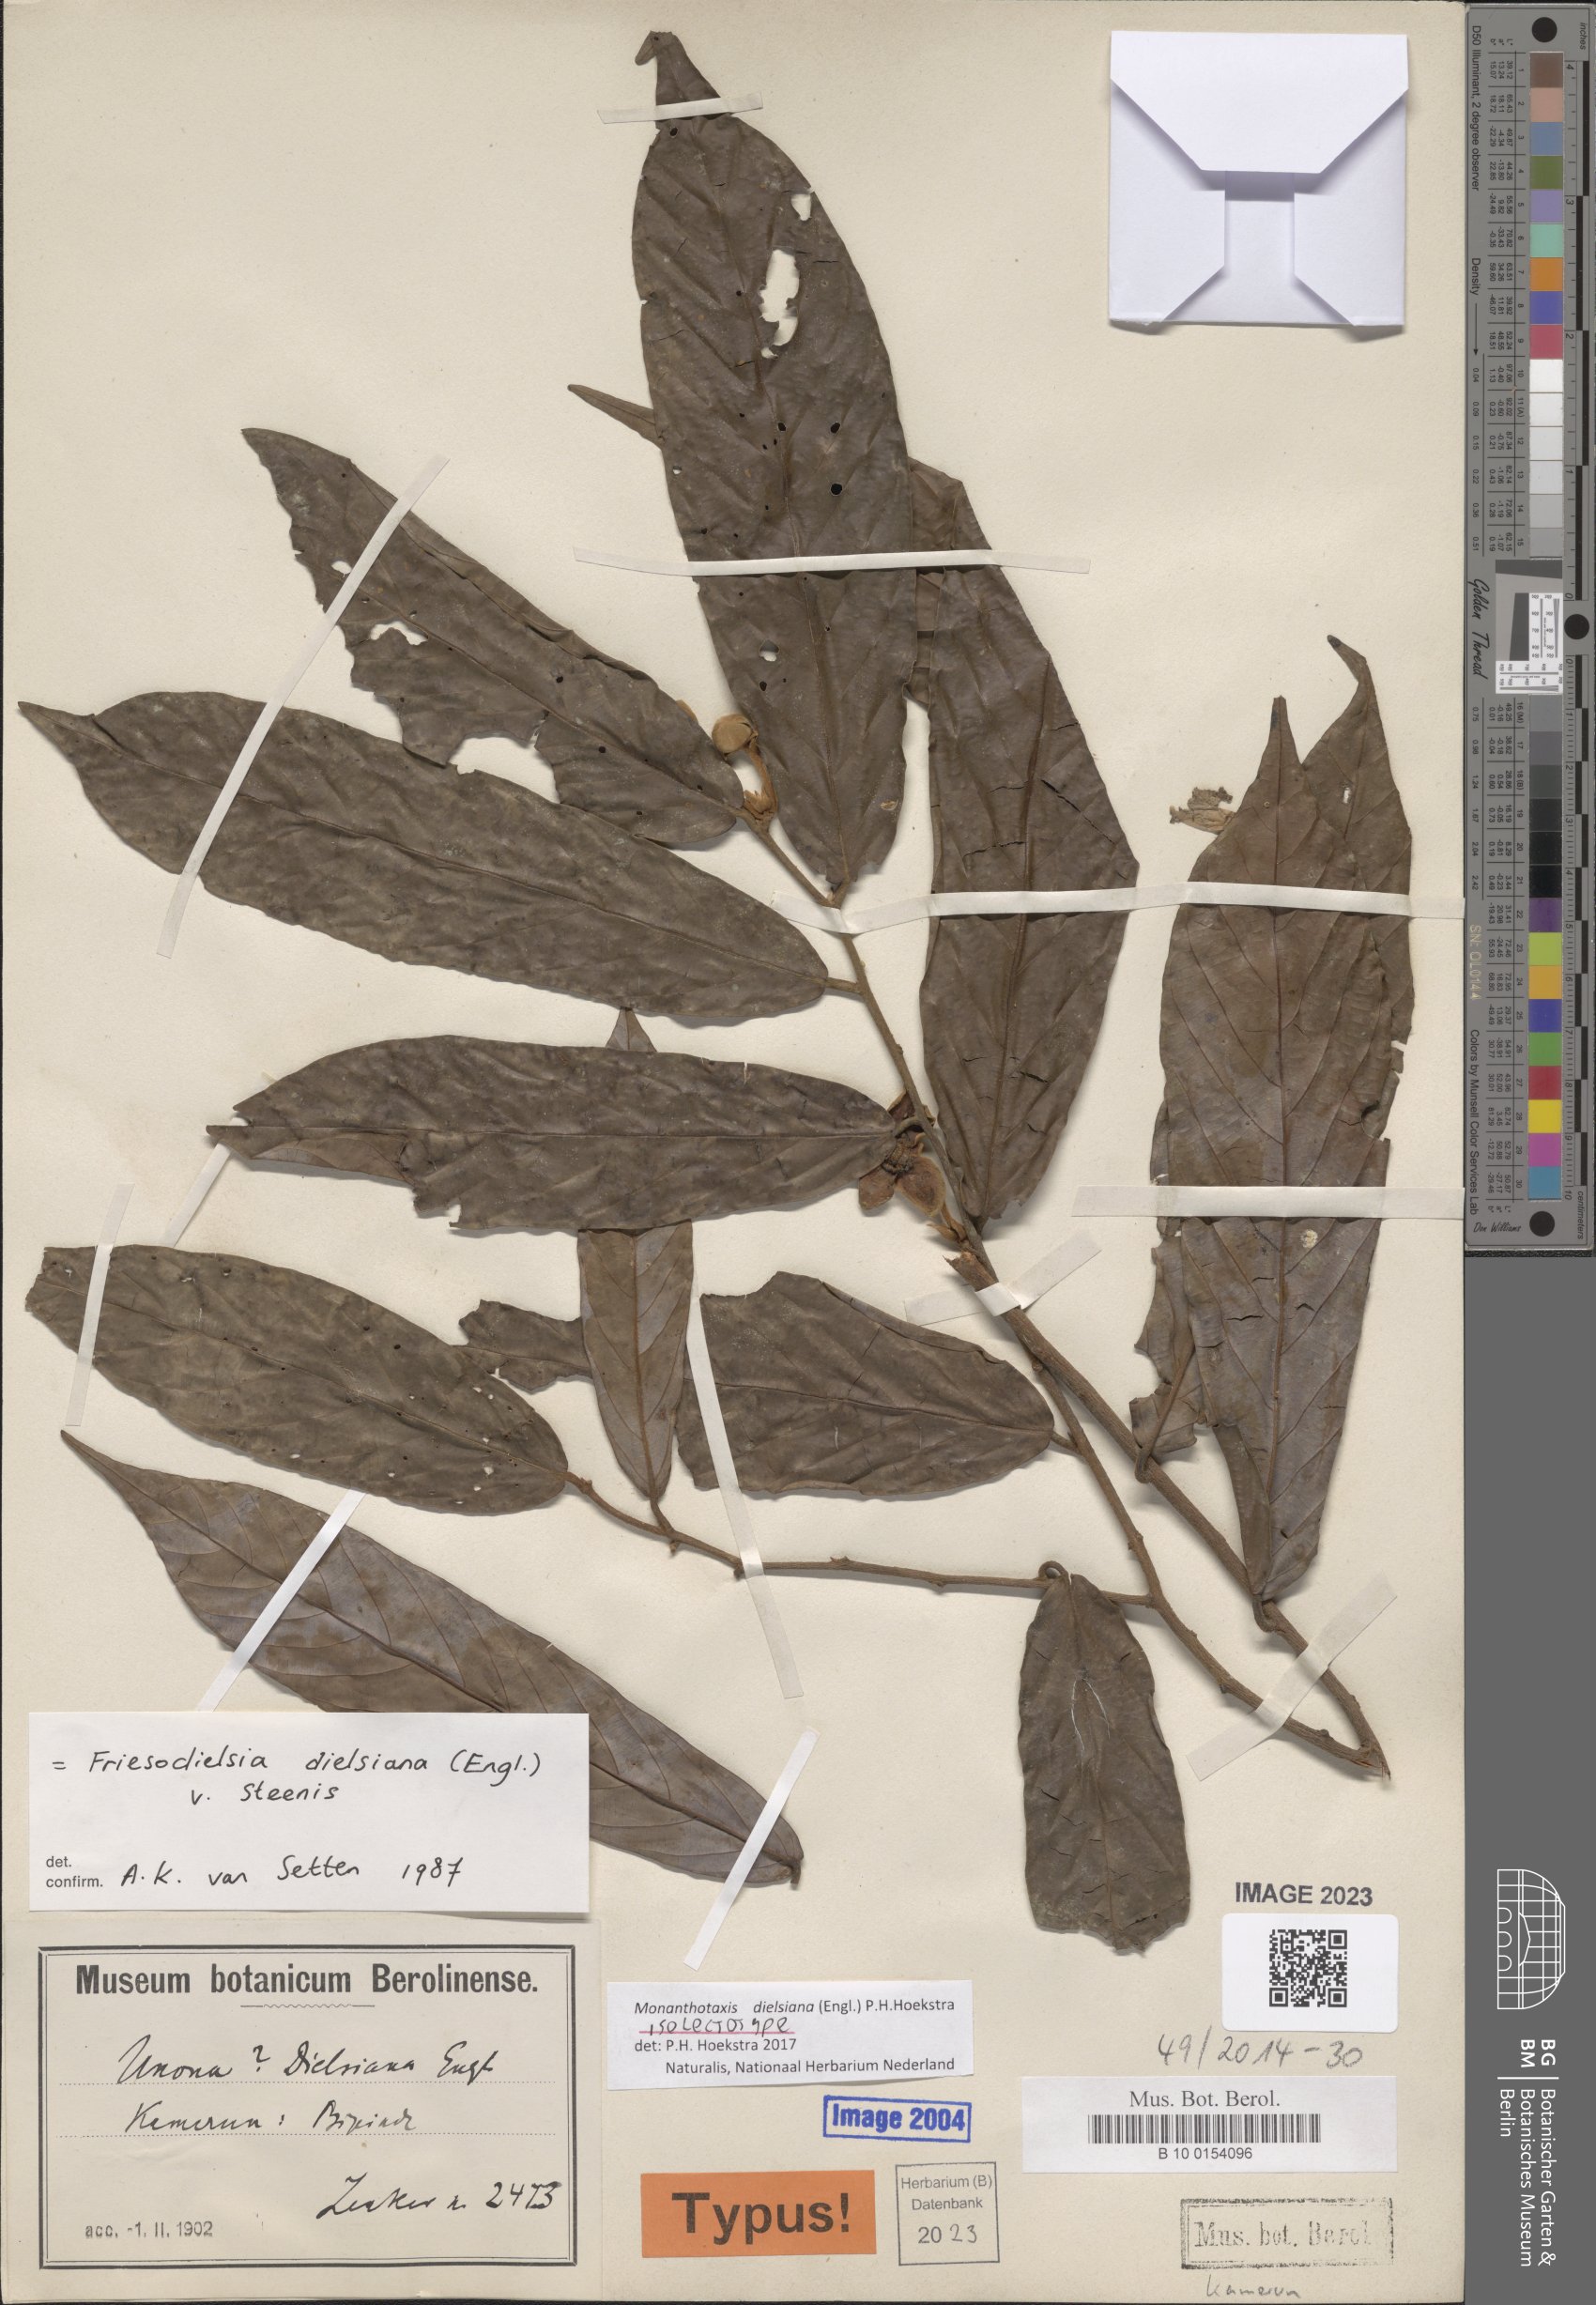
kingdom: Plantae
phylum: Tracheophyta
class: Magnoliopsida
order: Magnoliales
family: Annonaceae
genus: Friesodielsia
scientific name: Friesodielsia dielsiana
